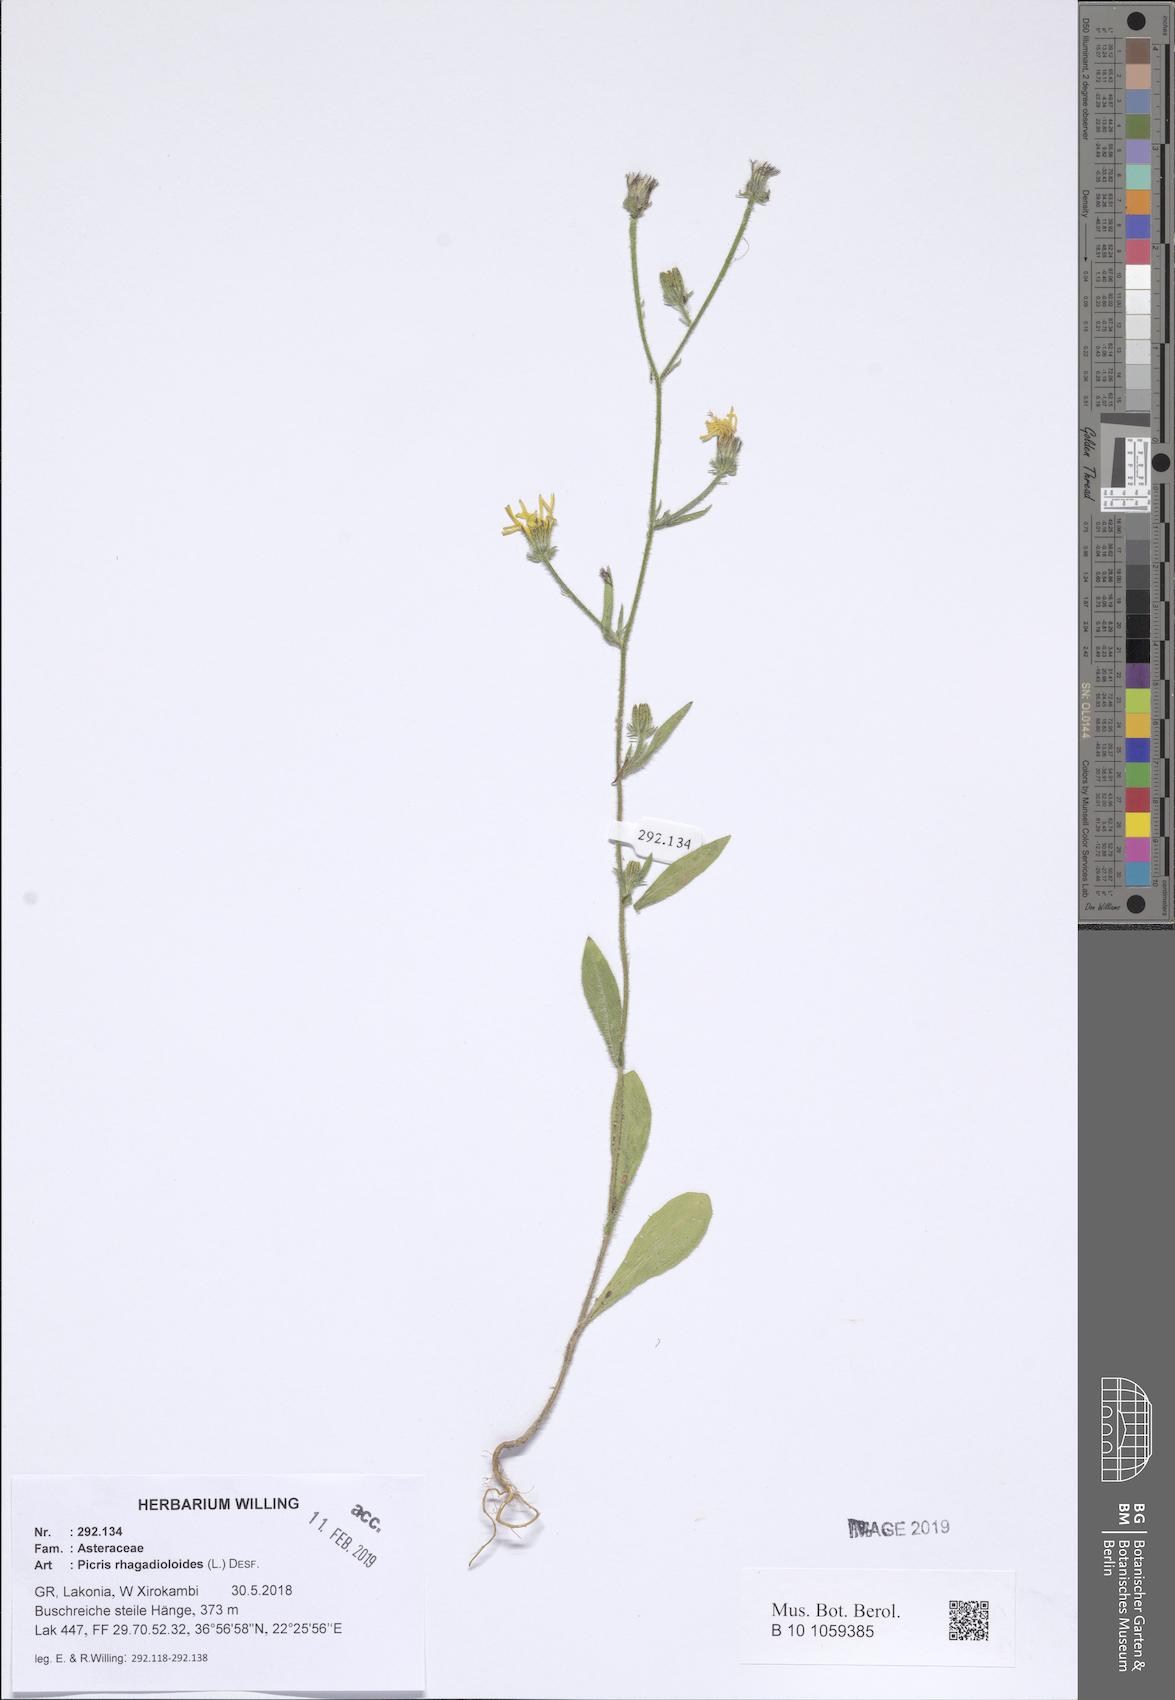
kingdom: Plantae
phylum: Tracheophyta
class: Magnoliopsida
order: Asterales
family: Asteraceae
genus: Picris
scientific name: Picris rhagadioloides
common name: Oxtongue
